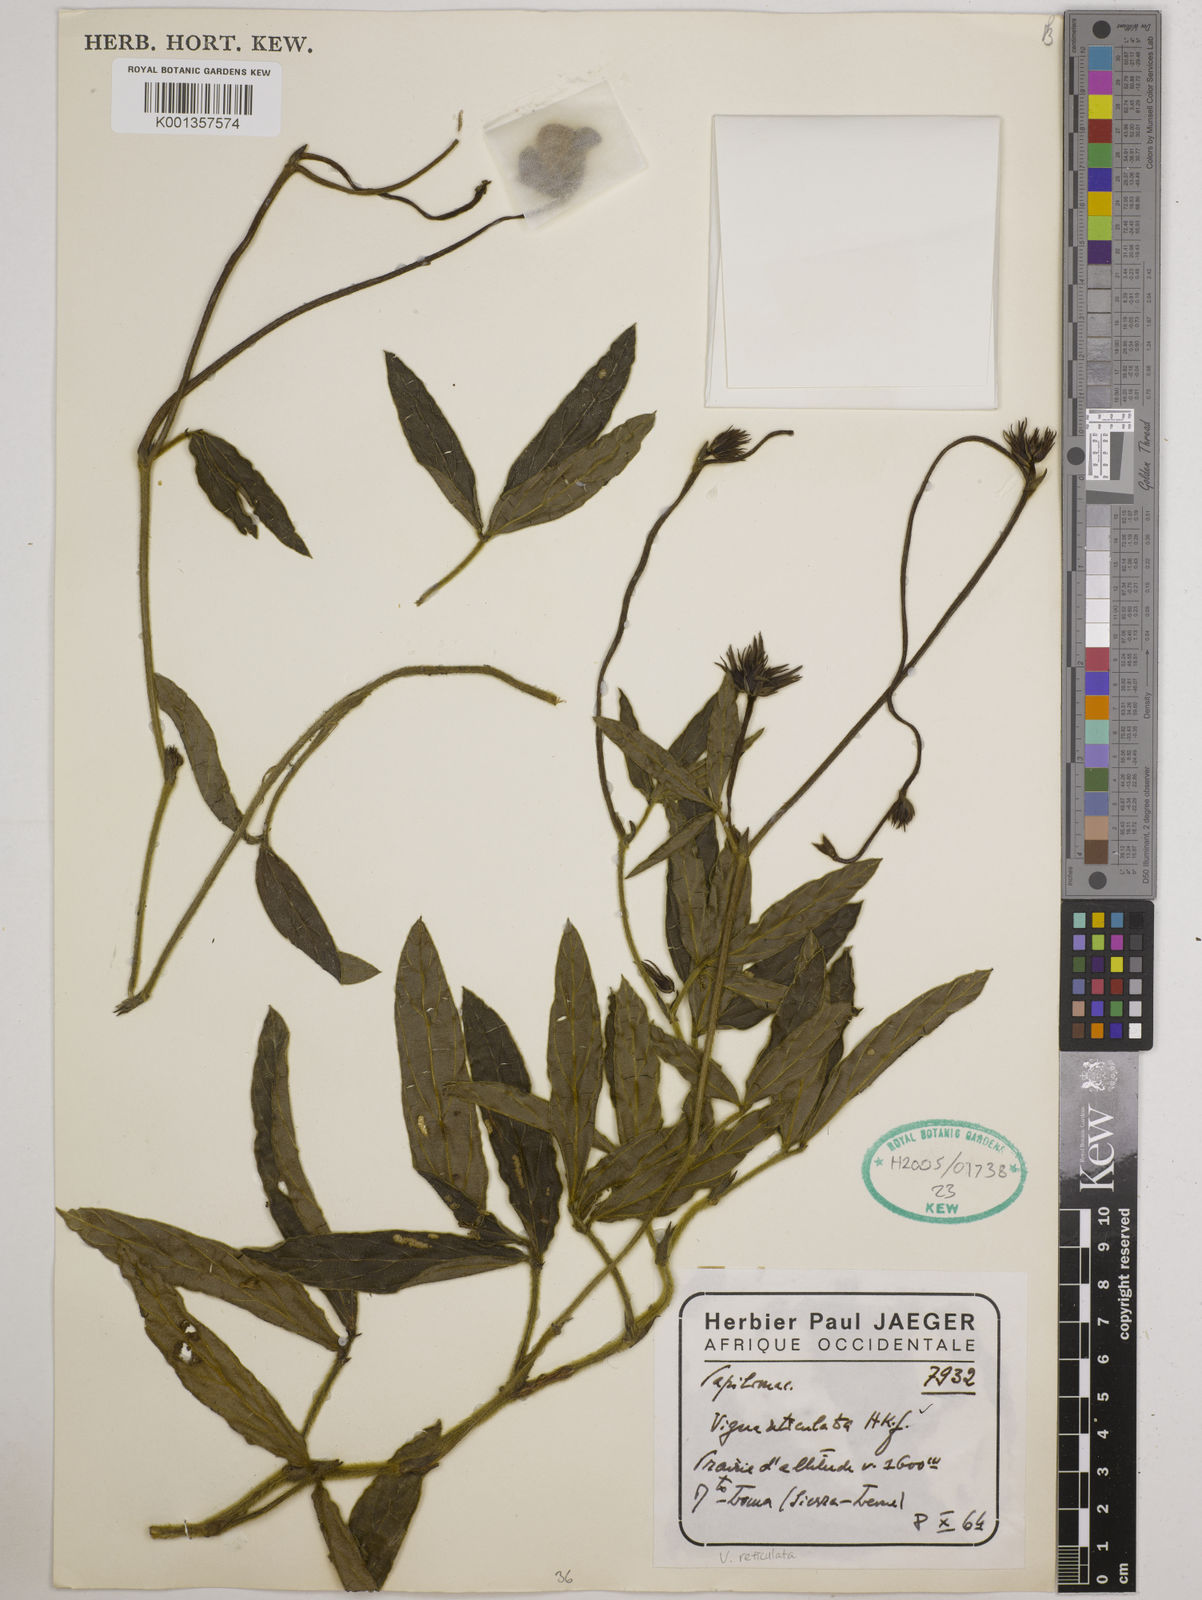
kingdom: Plantae
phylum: Tracheophyta
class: Magnoliopsida
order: Fabales
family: Fabaceae
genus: Vigna
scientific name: Vigna reticulata
